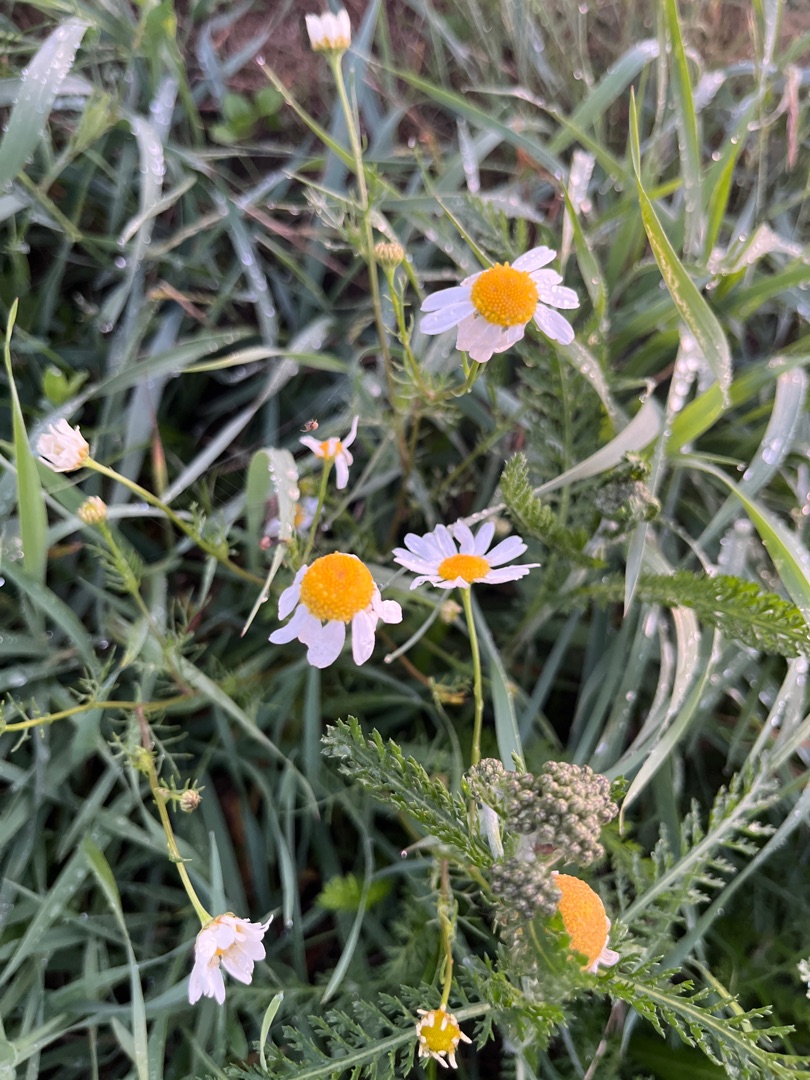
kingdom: Plantae
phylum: Tracheophyta
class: Magnoliopsida
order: Asterales
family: Asteraceae
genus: Tripleurospermum
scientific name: Tripleurospermum inodorum
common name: Lugtløs kamille
